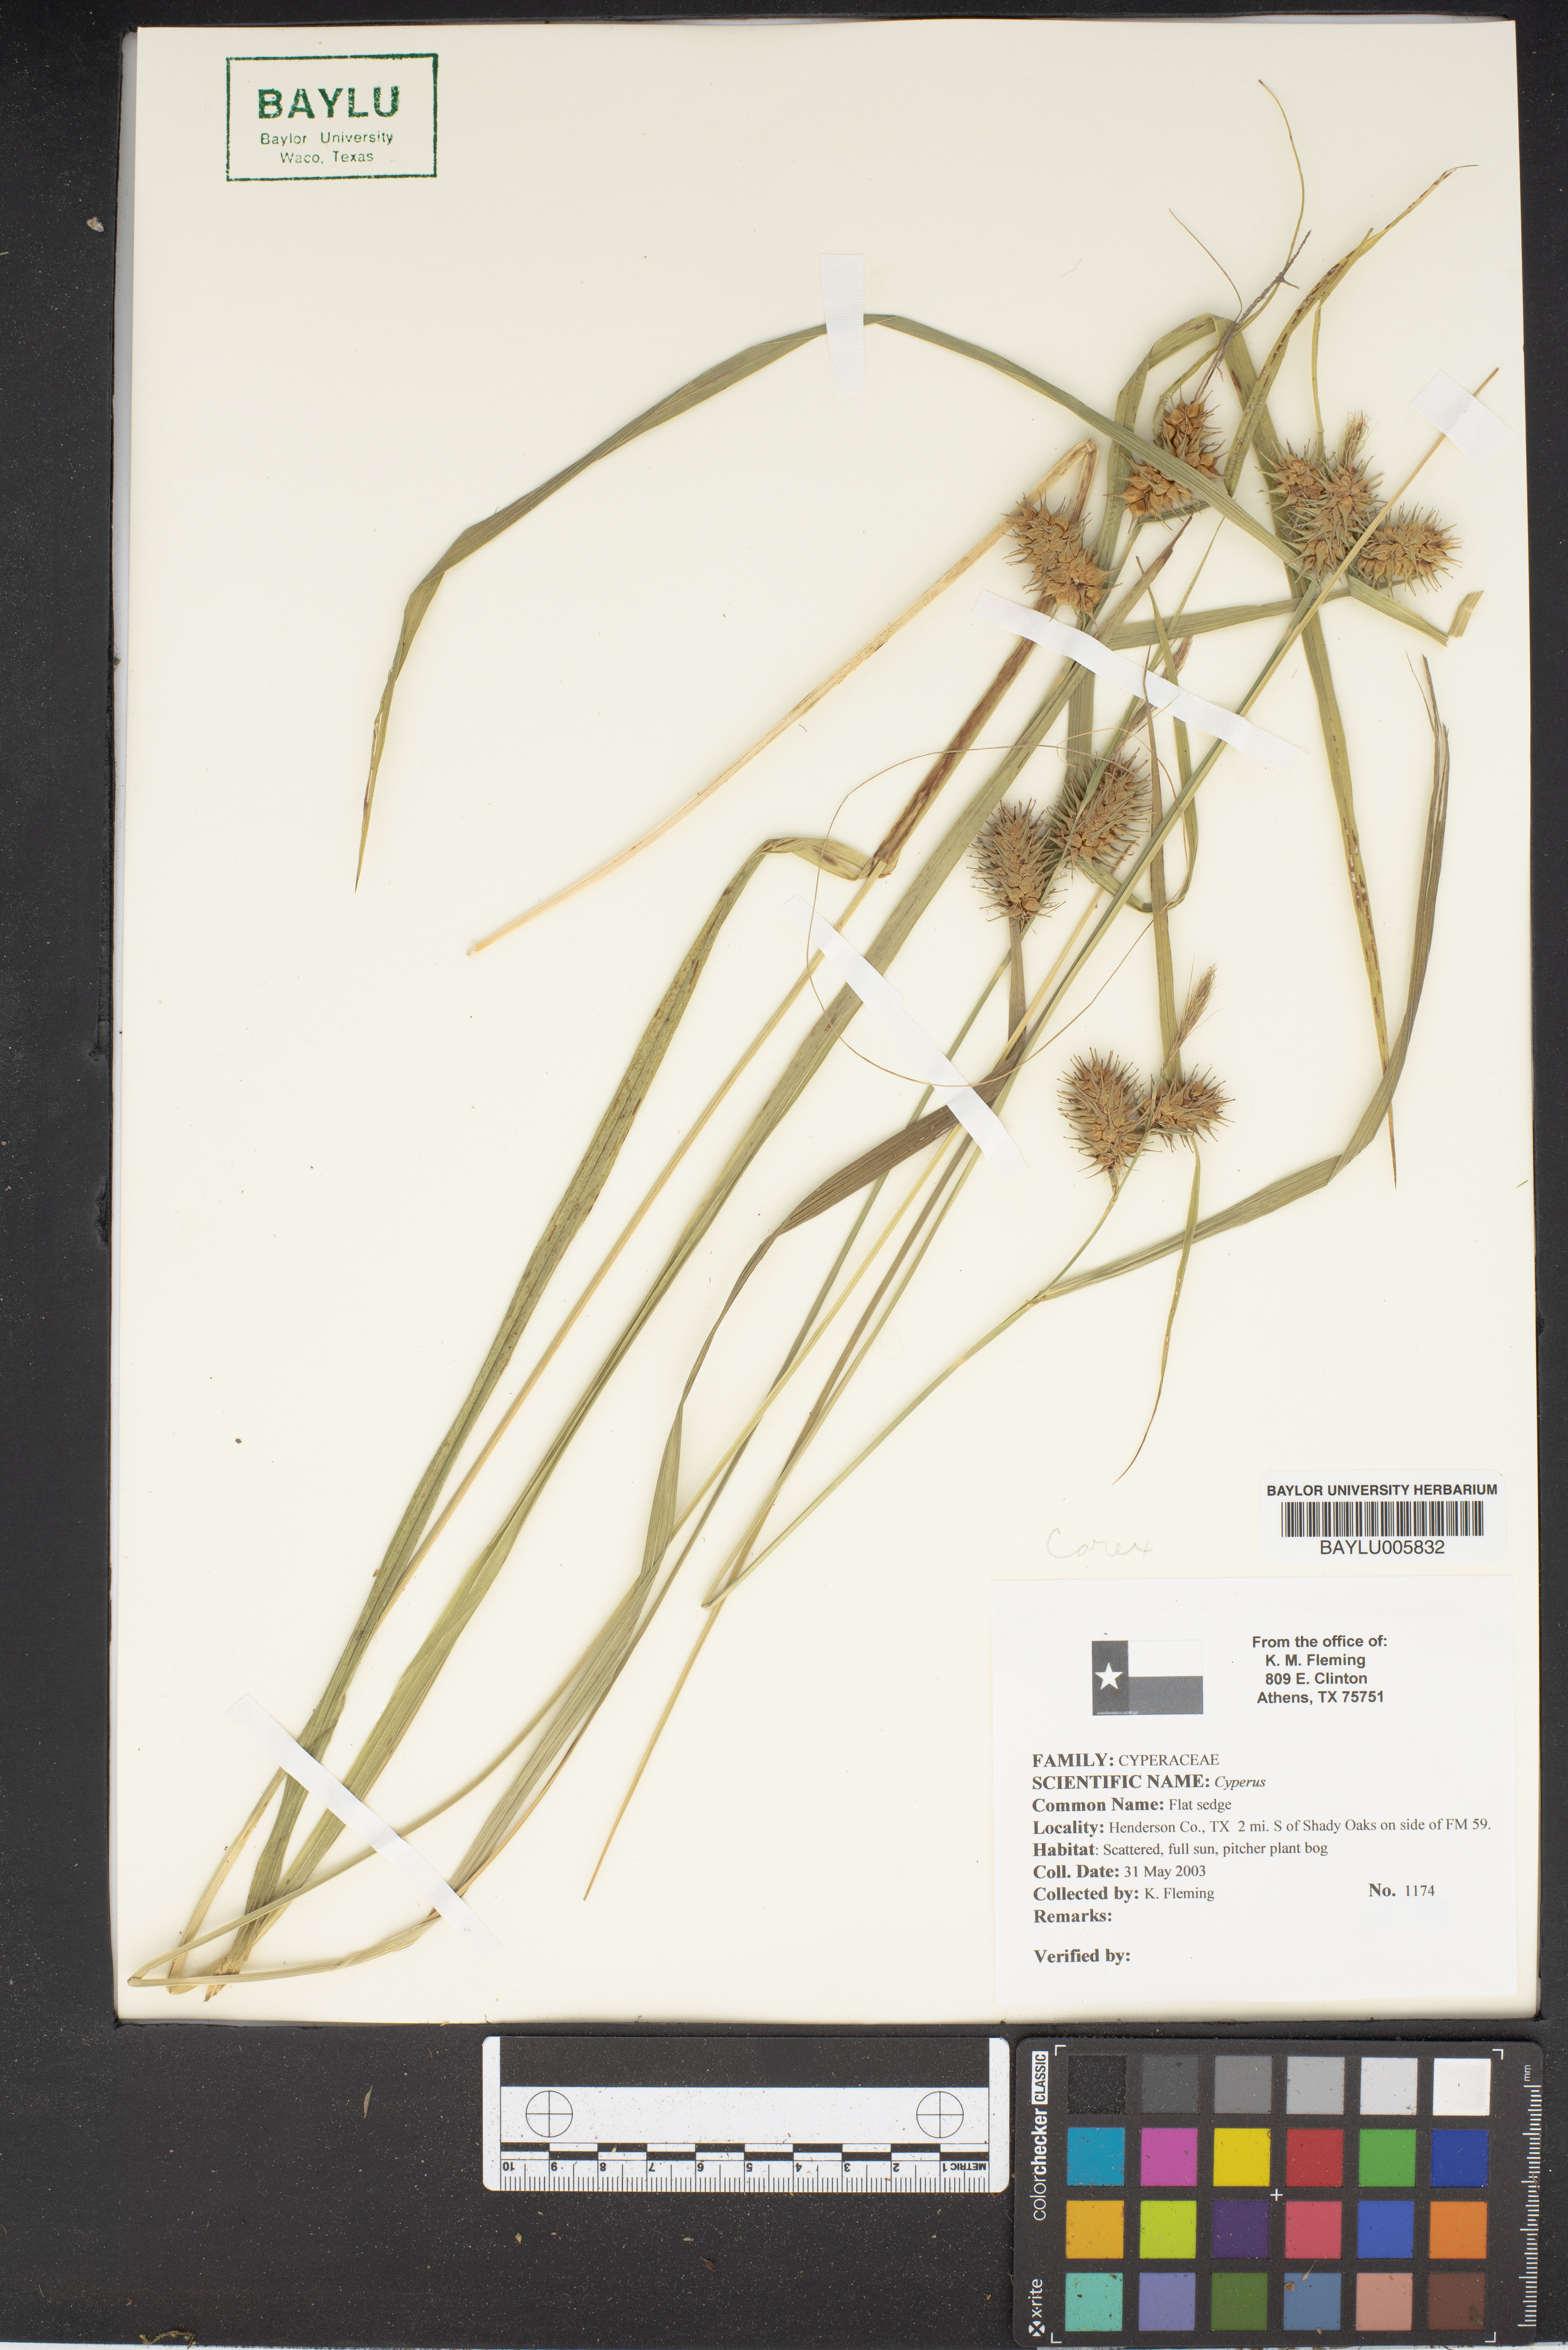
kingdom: Plantae
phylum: Tracheophyta
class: Liliopsida
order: Poales
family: Cyperaceae
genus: Cyperus
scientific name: Cyperus
